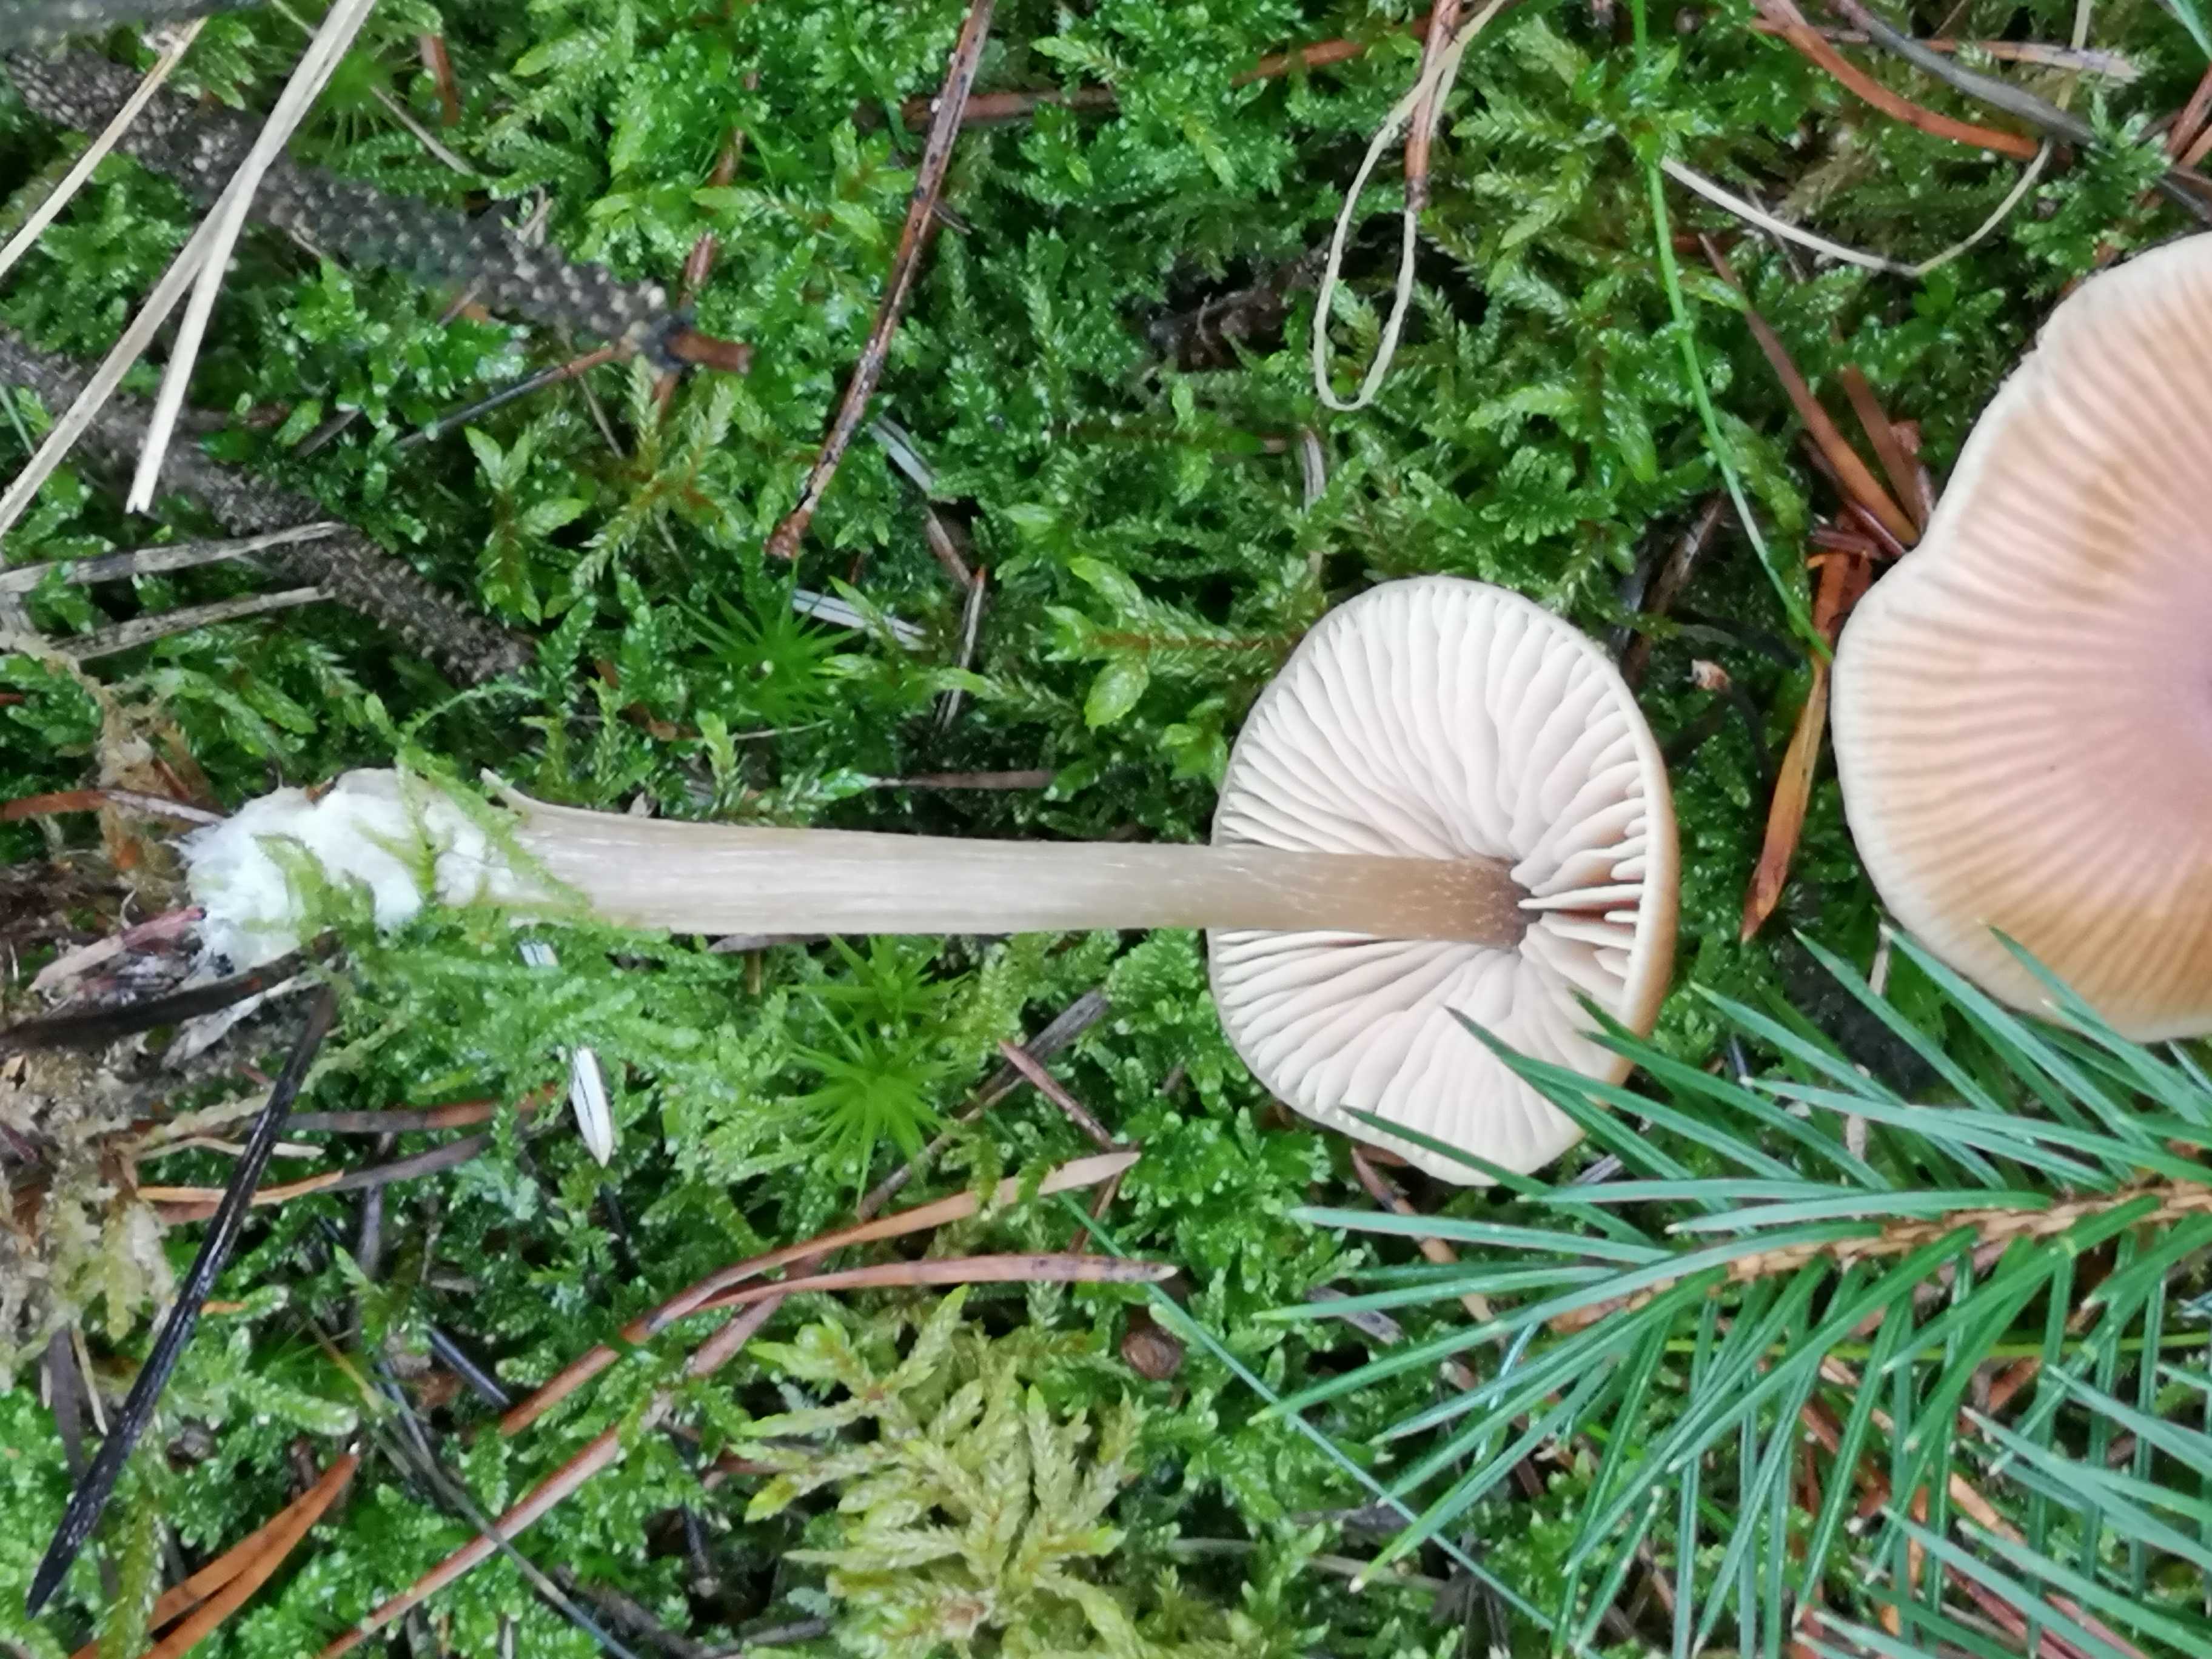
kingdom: Fungi
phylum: Basidiomycota
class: Agaricomycetes
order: Agaricales
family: Entolomataceae
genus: Entoloma
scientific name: Entoloma cetratum
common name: voks-rødblad
